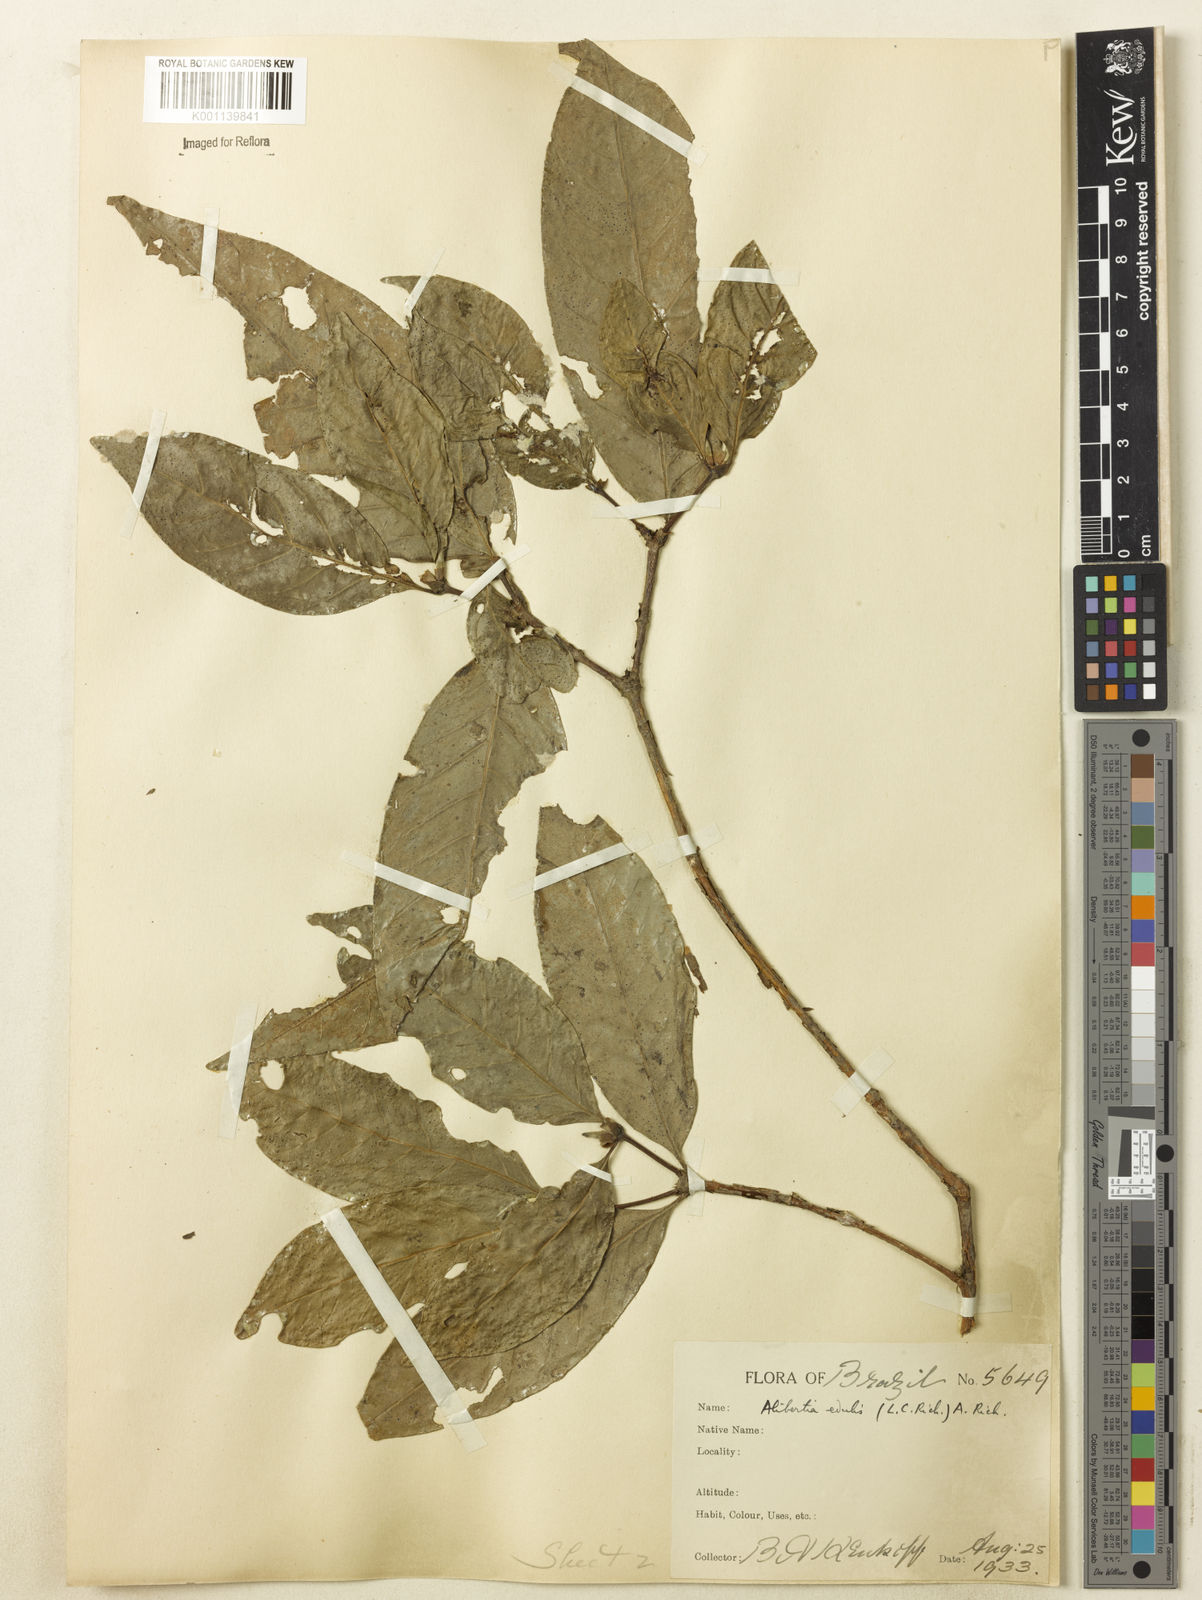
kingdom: Plantae
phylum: Tracheophyta
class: Magnoliopsida
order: Gentianales
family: Rubiaceae
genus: Alibertia
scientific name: Alibertia latifolia
